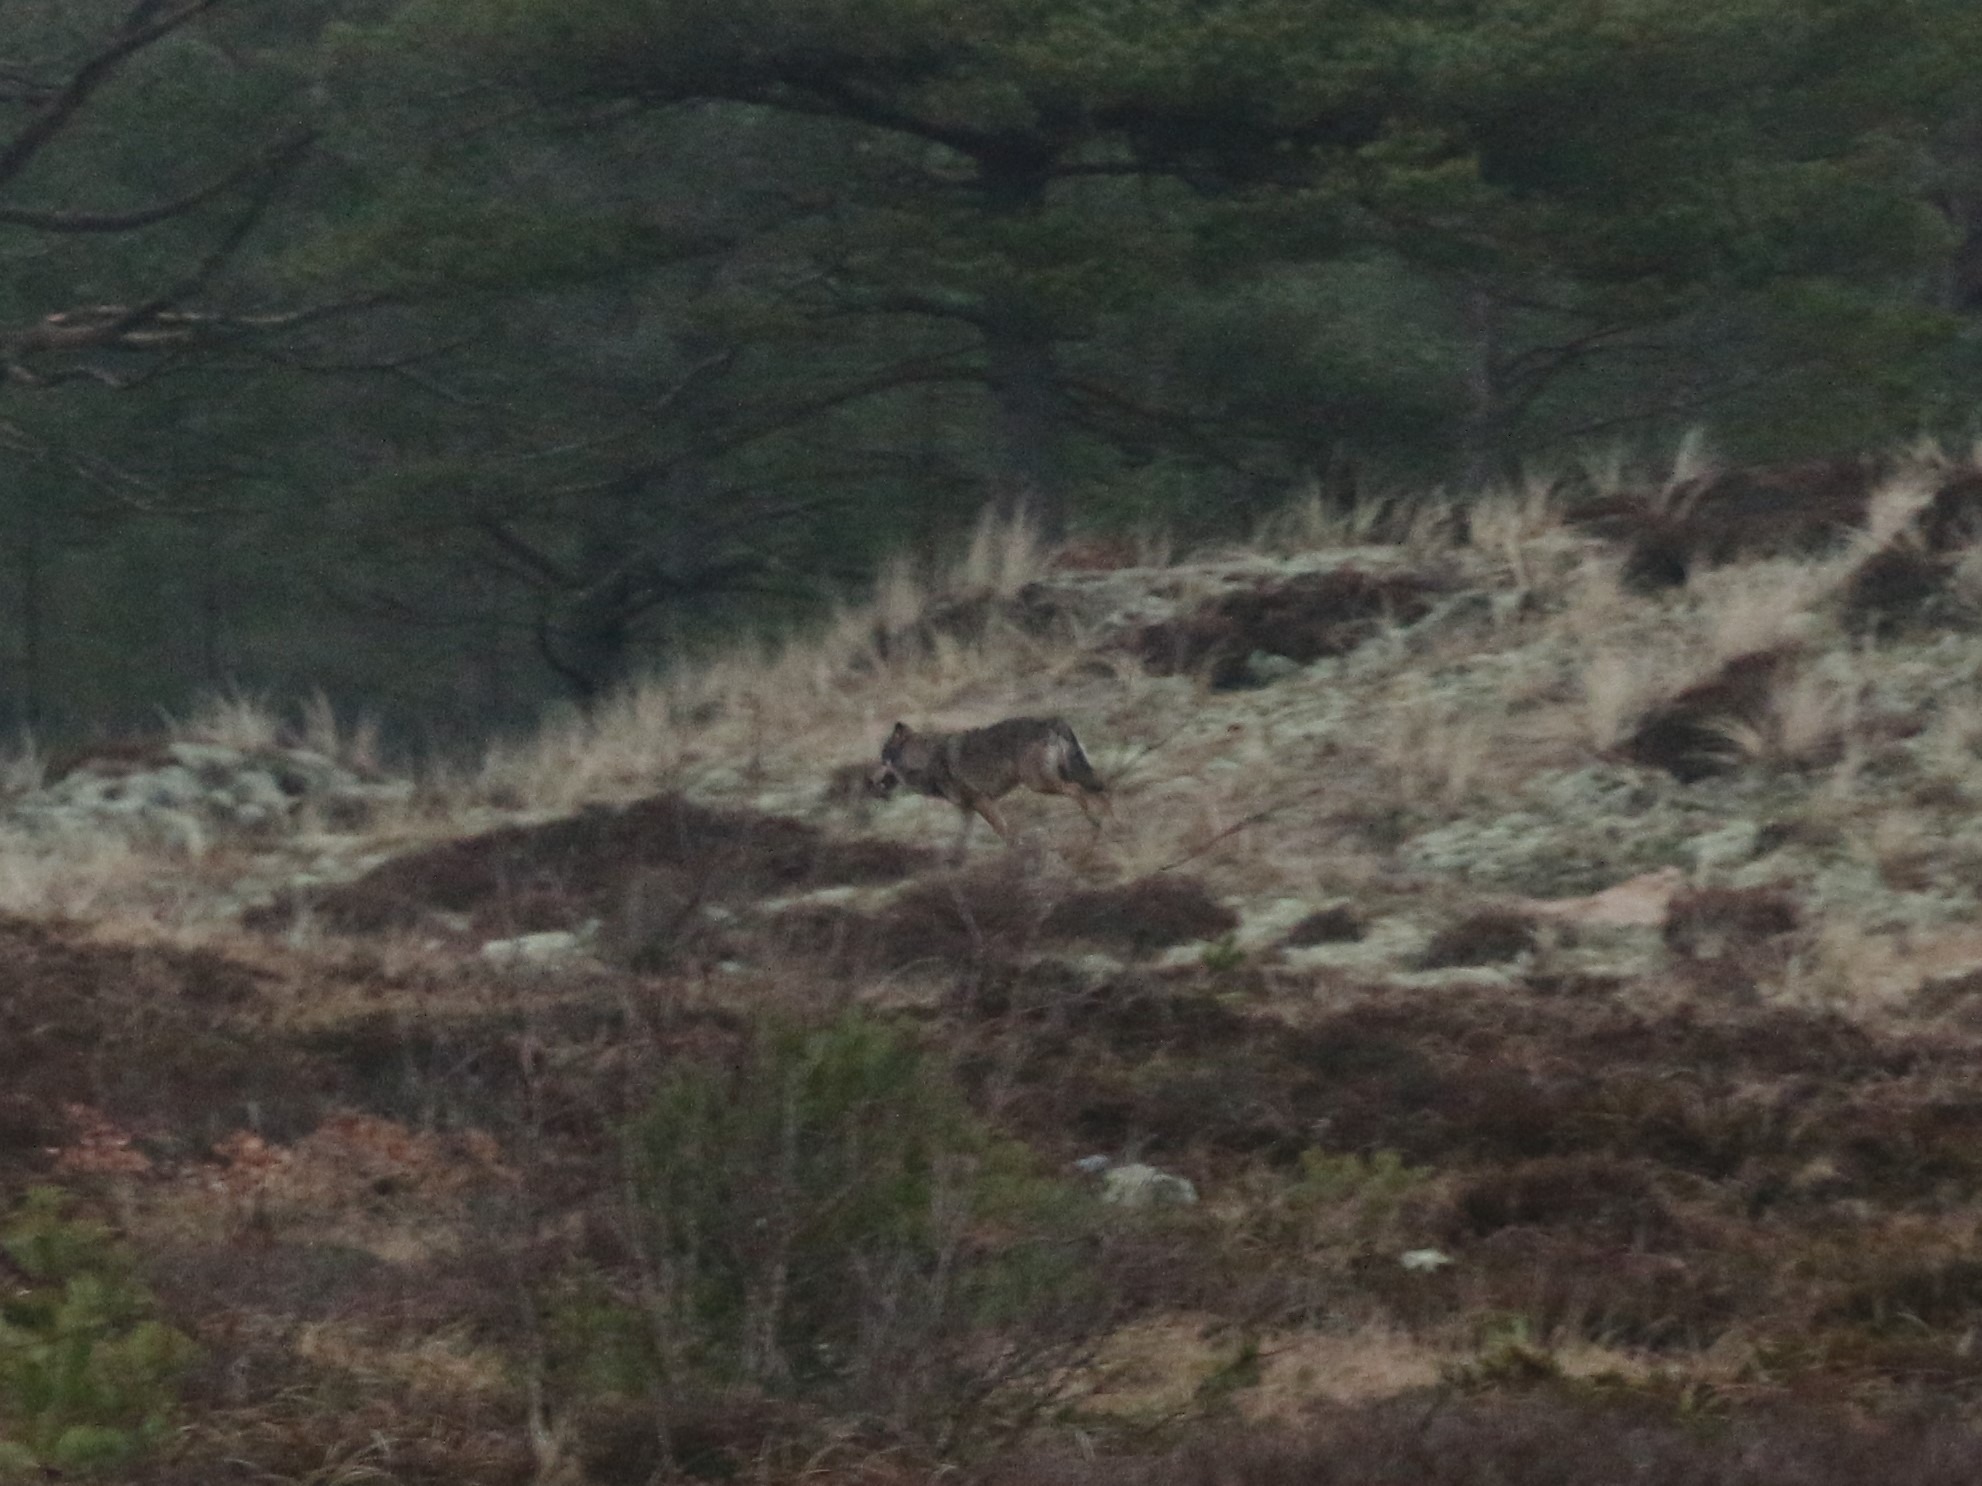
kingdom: Animalia
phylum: Chordata
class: Mammalia
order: Carnivora
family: Canidae
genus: Canis
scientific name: Canis lupus
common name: Ulv
